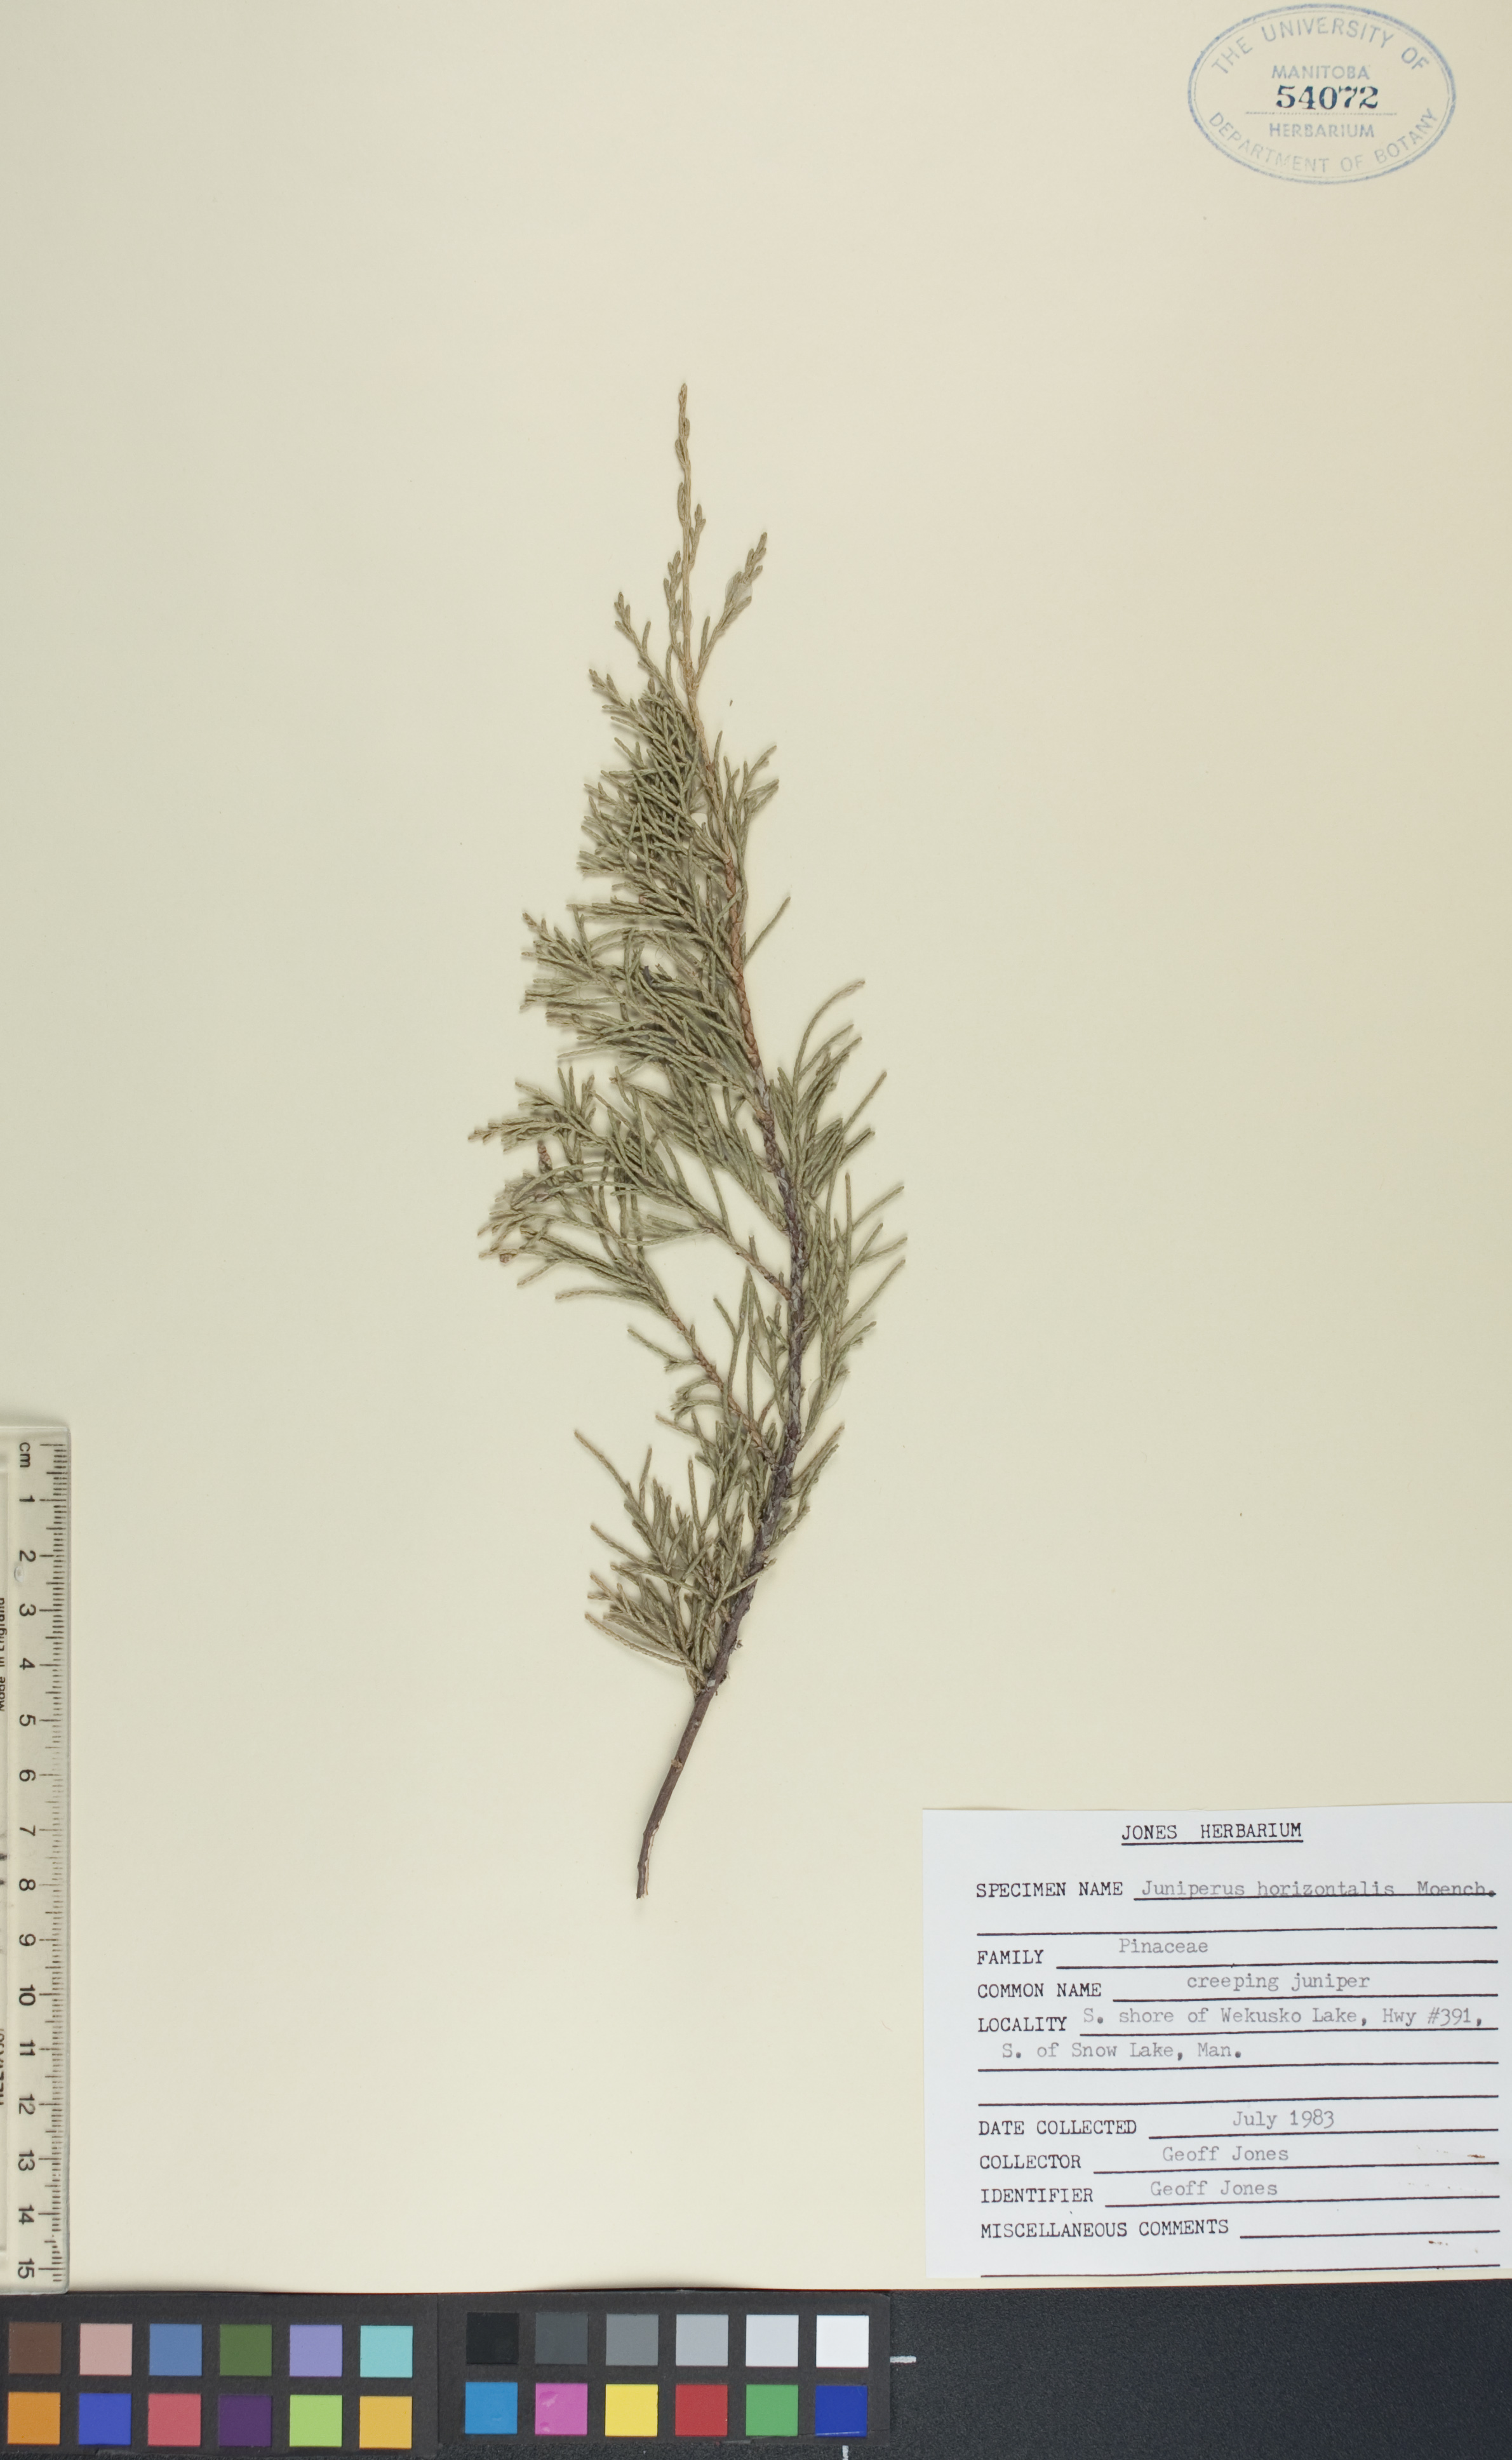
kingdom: Plantae
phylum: Tracheophyta
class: Pinopsida
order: Pinales
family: Cupressaceae
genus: Juniperus
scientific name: Juniperus horizontalis
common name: Creeping juniper
